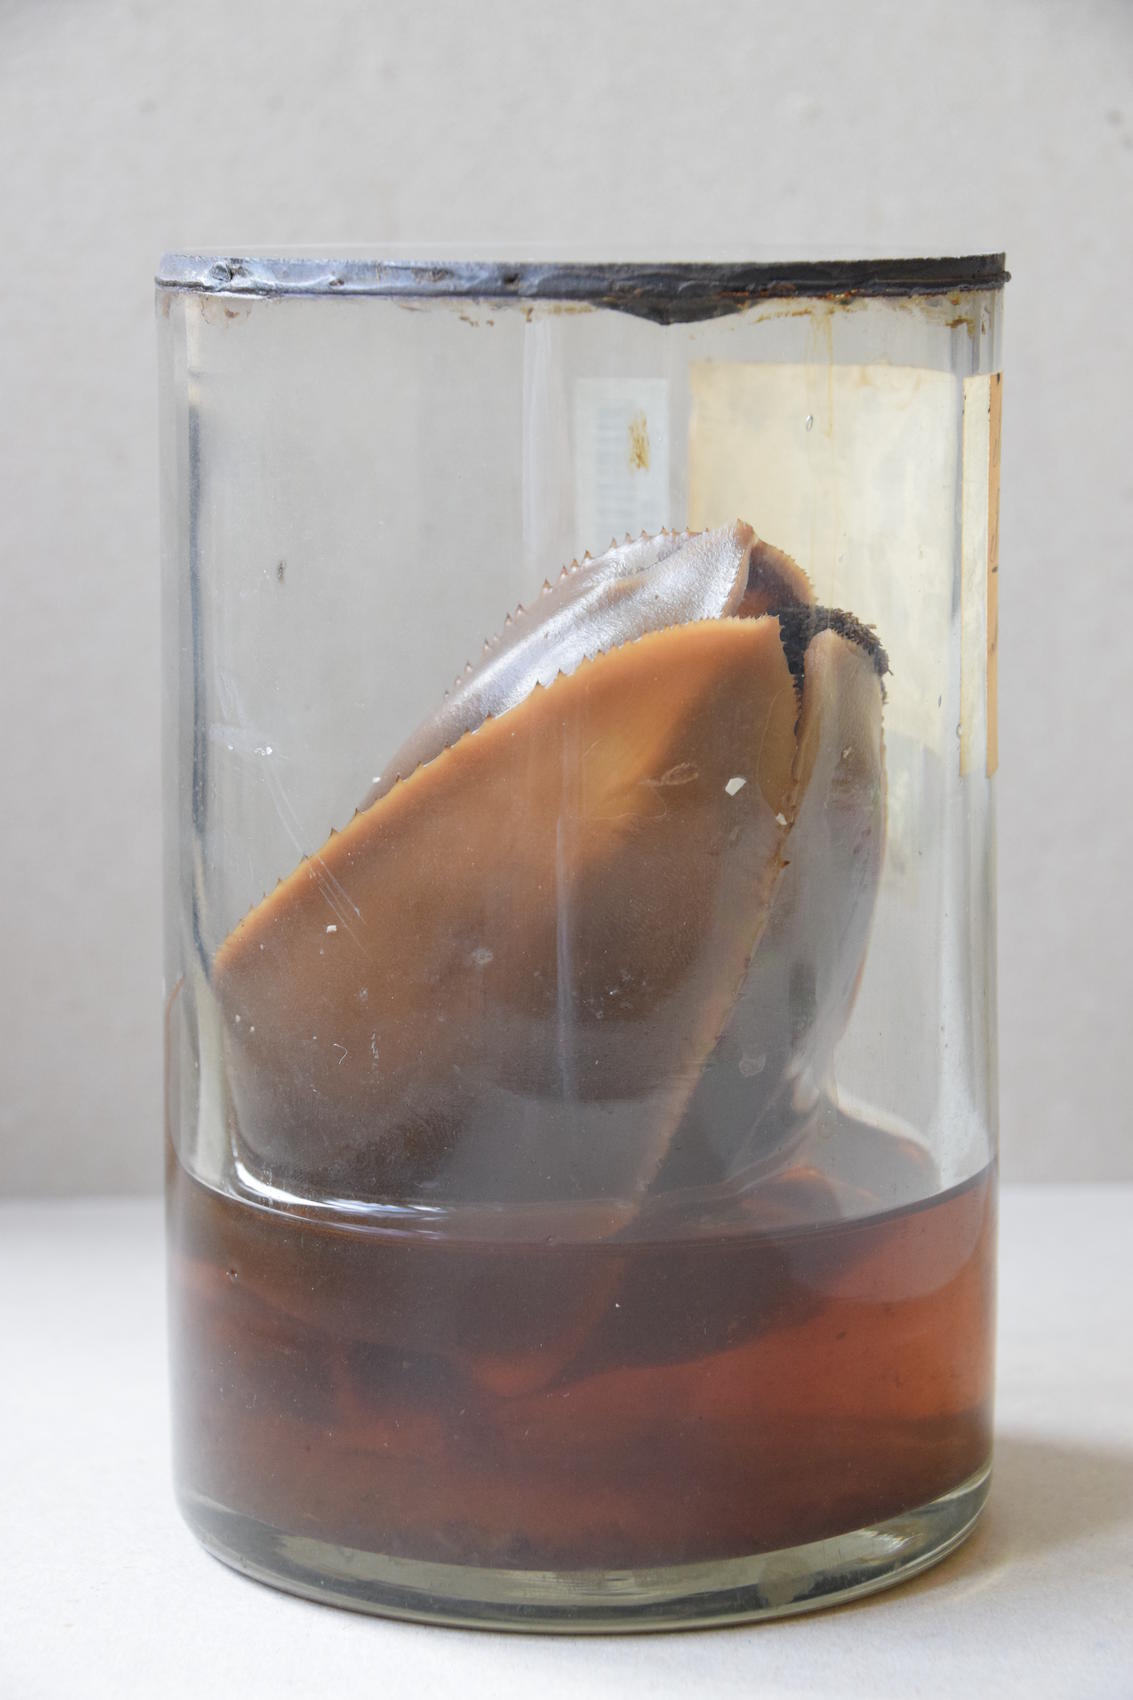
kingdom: Plantae
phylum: Tracheophyta
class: Liliopsida
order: Pandanales
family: Pandanaceae
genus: Freycinetia
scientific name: Freycinetia ferox
